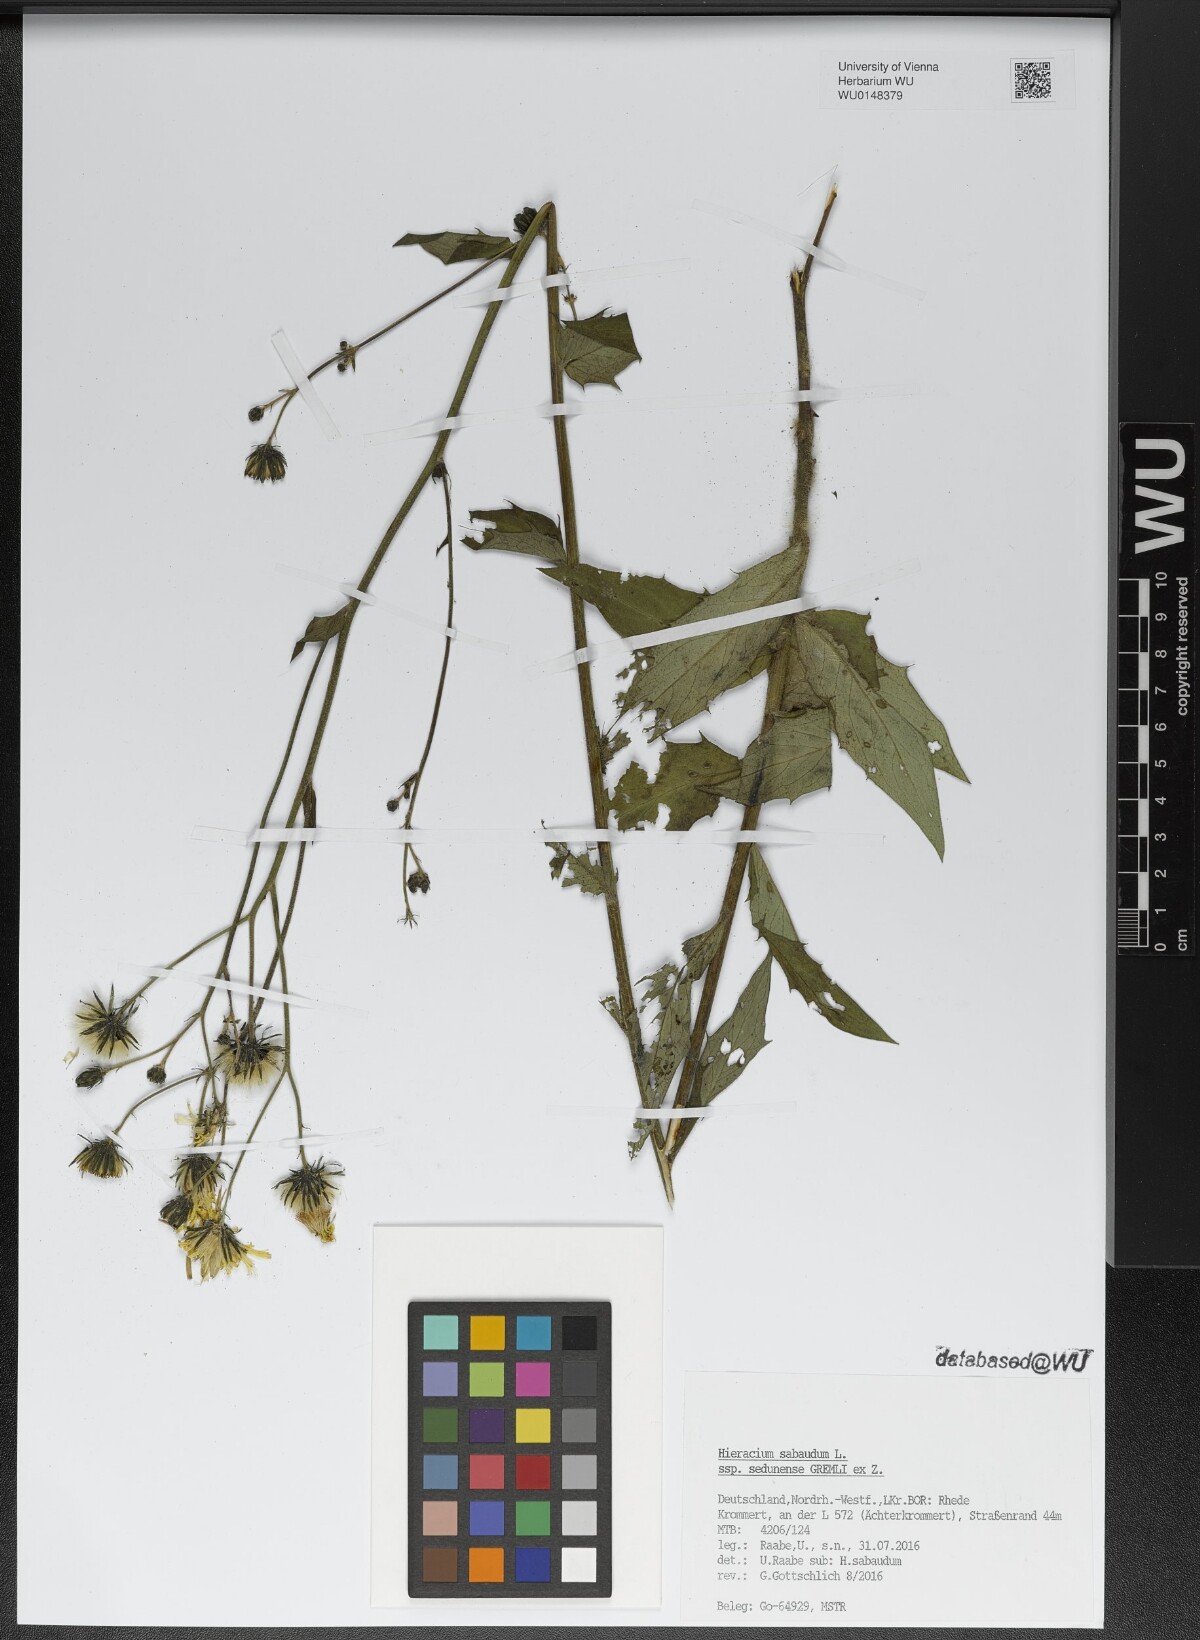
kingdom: Plantae
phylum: Tracheophyta
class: Magnoliopsida
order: Asterales
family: Asteraceae
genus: Hieracium
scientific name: Hieracium sabaudum
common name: New england hawkweed
